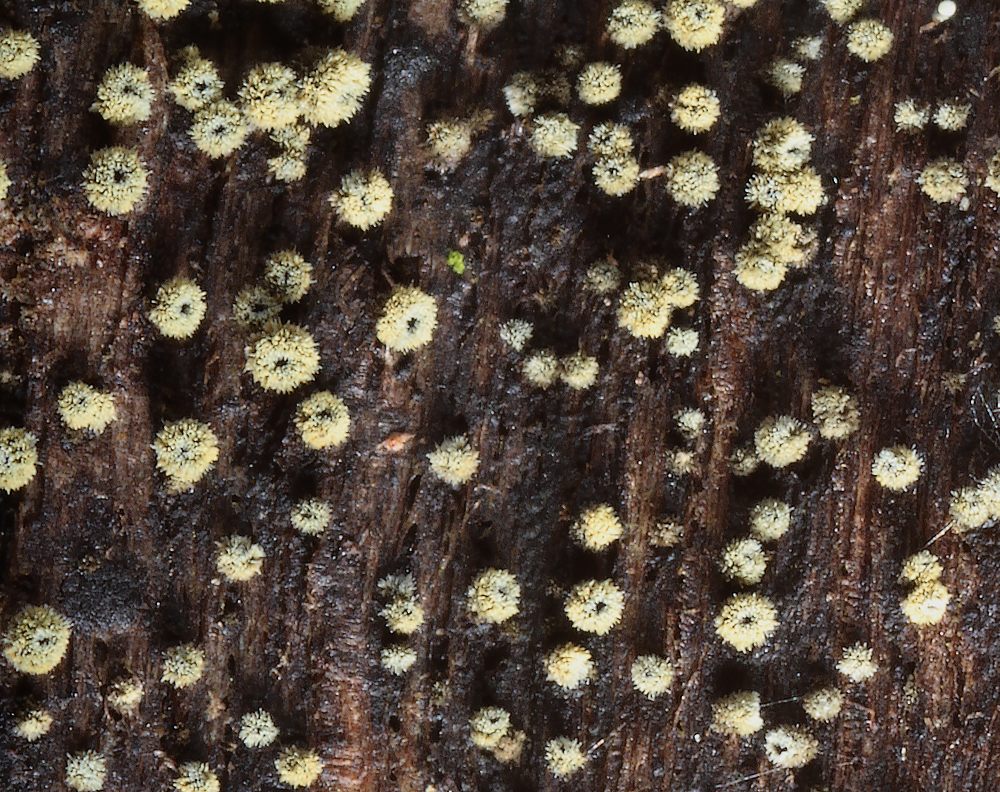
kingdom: Fungi
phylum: Ascomycota
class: Leotiomycetes
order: Helotiales
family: Lachnaceae
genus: Neodasyscypha
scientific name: Neodasyscypha cerina
